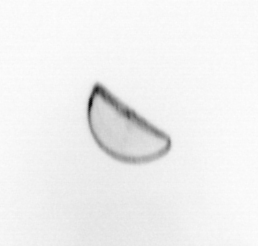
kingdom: Chromista
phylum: Ochrophyta
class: Bacillariophyceae
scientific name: Bacillariophyceae
